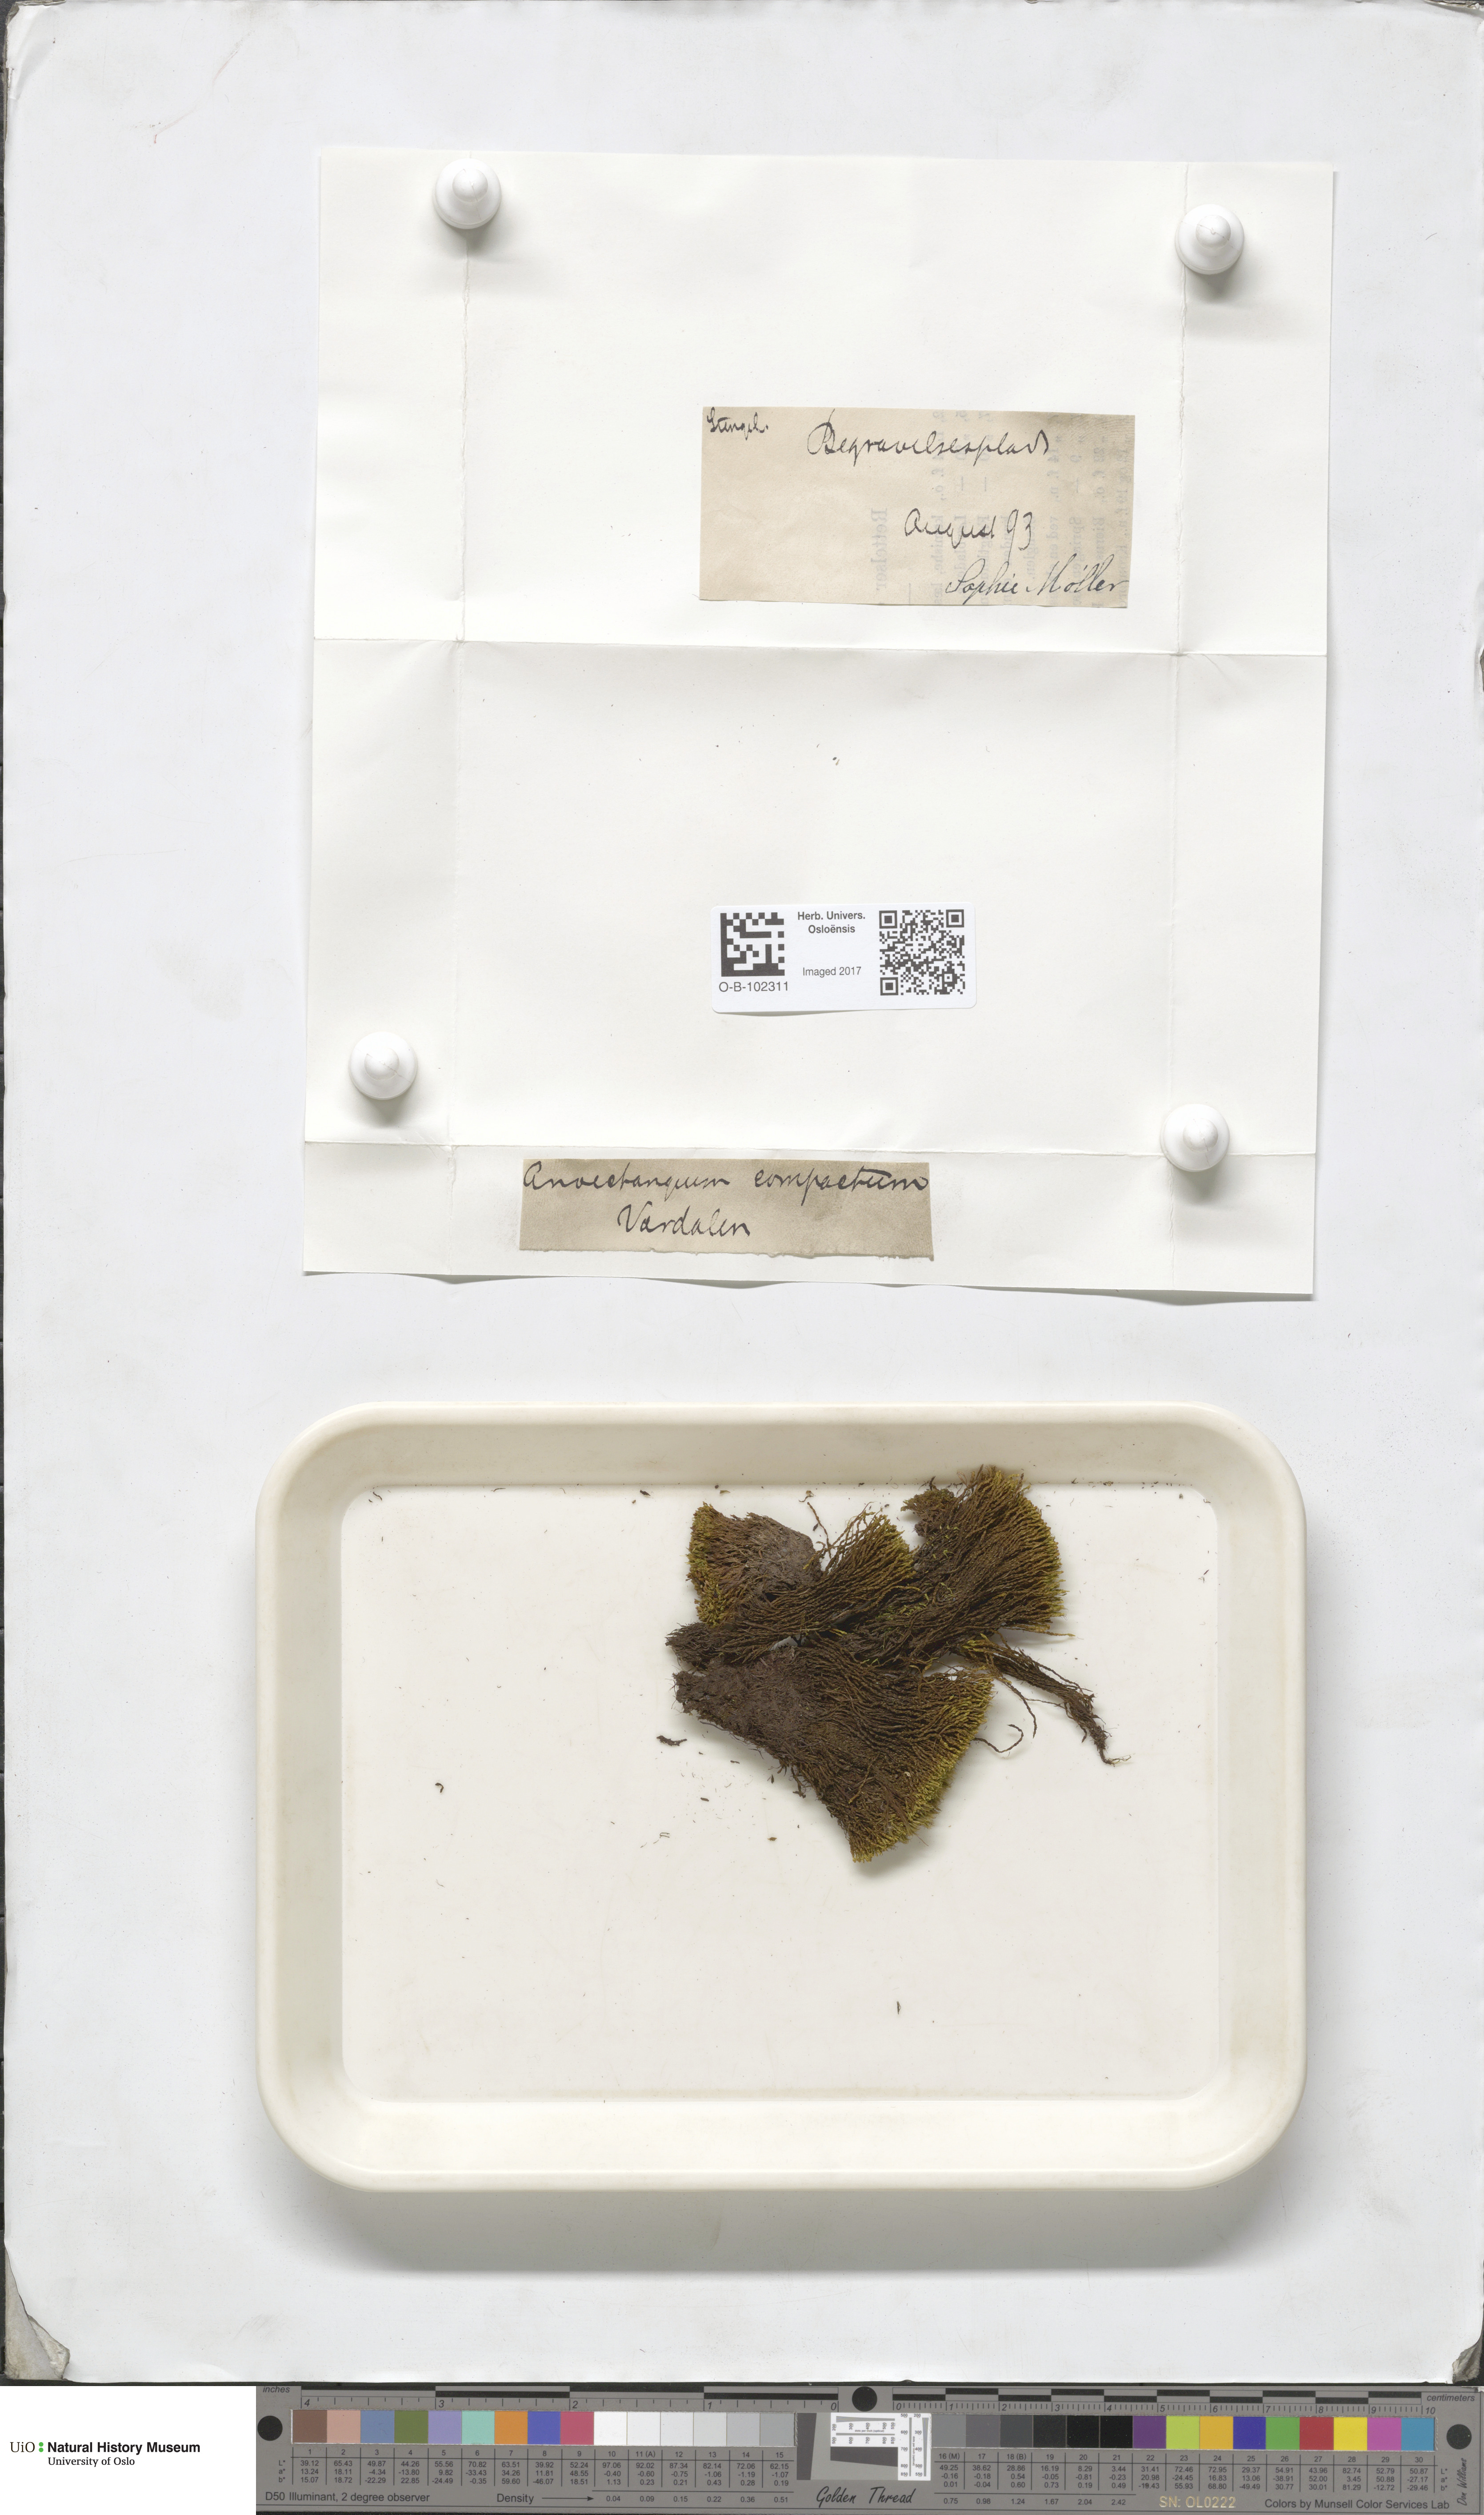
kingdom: Plantae
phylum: Bryophyta
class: Bryopsida
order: Pottiales
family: Pottiaceae
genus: Anoectangium
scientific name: Anoectangium aestivum
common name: Summer-moss
